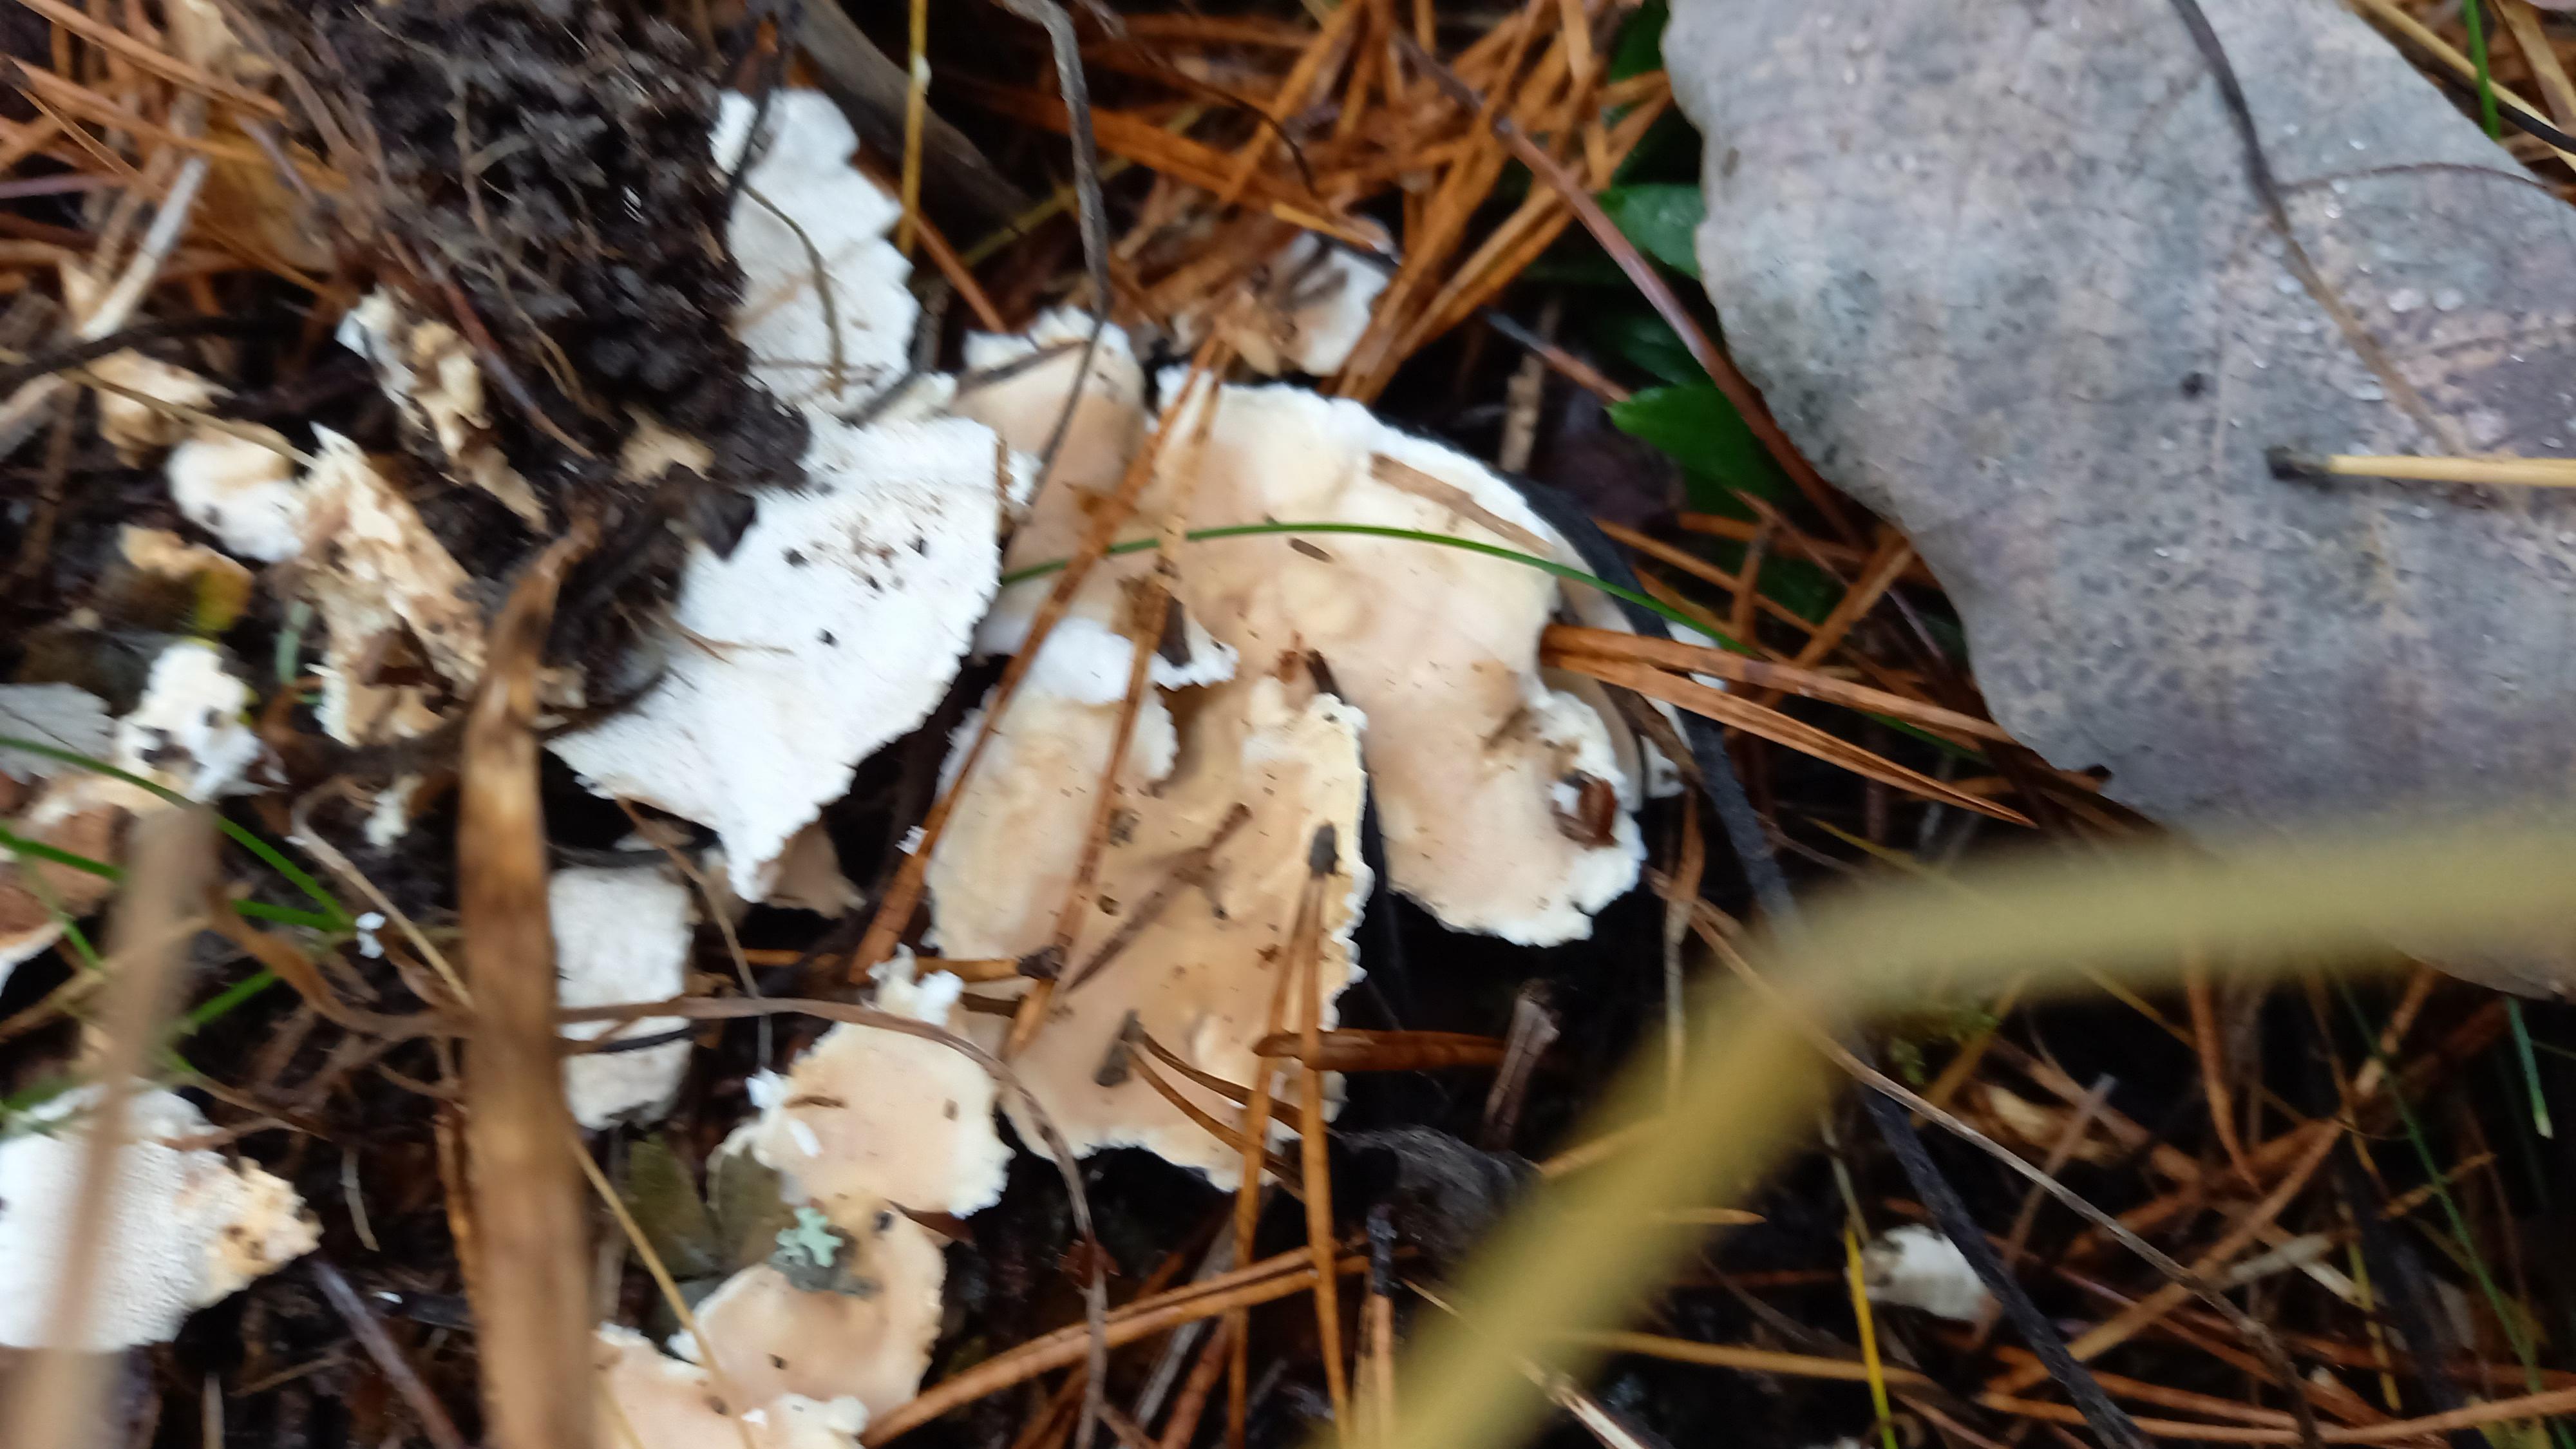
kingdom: Fungi
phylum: Basidiomycota
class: Agaricomycetes
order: Cantharellales
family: Hydnaceae
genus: Sistotrema
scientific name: Sistotrema confluens
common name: stilket kroneskorpe
